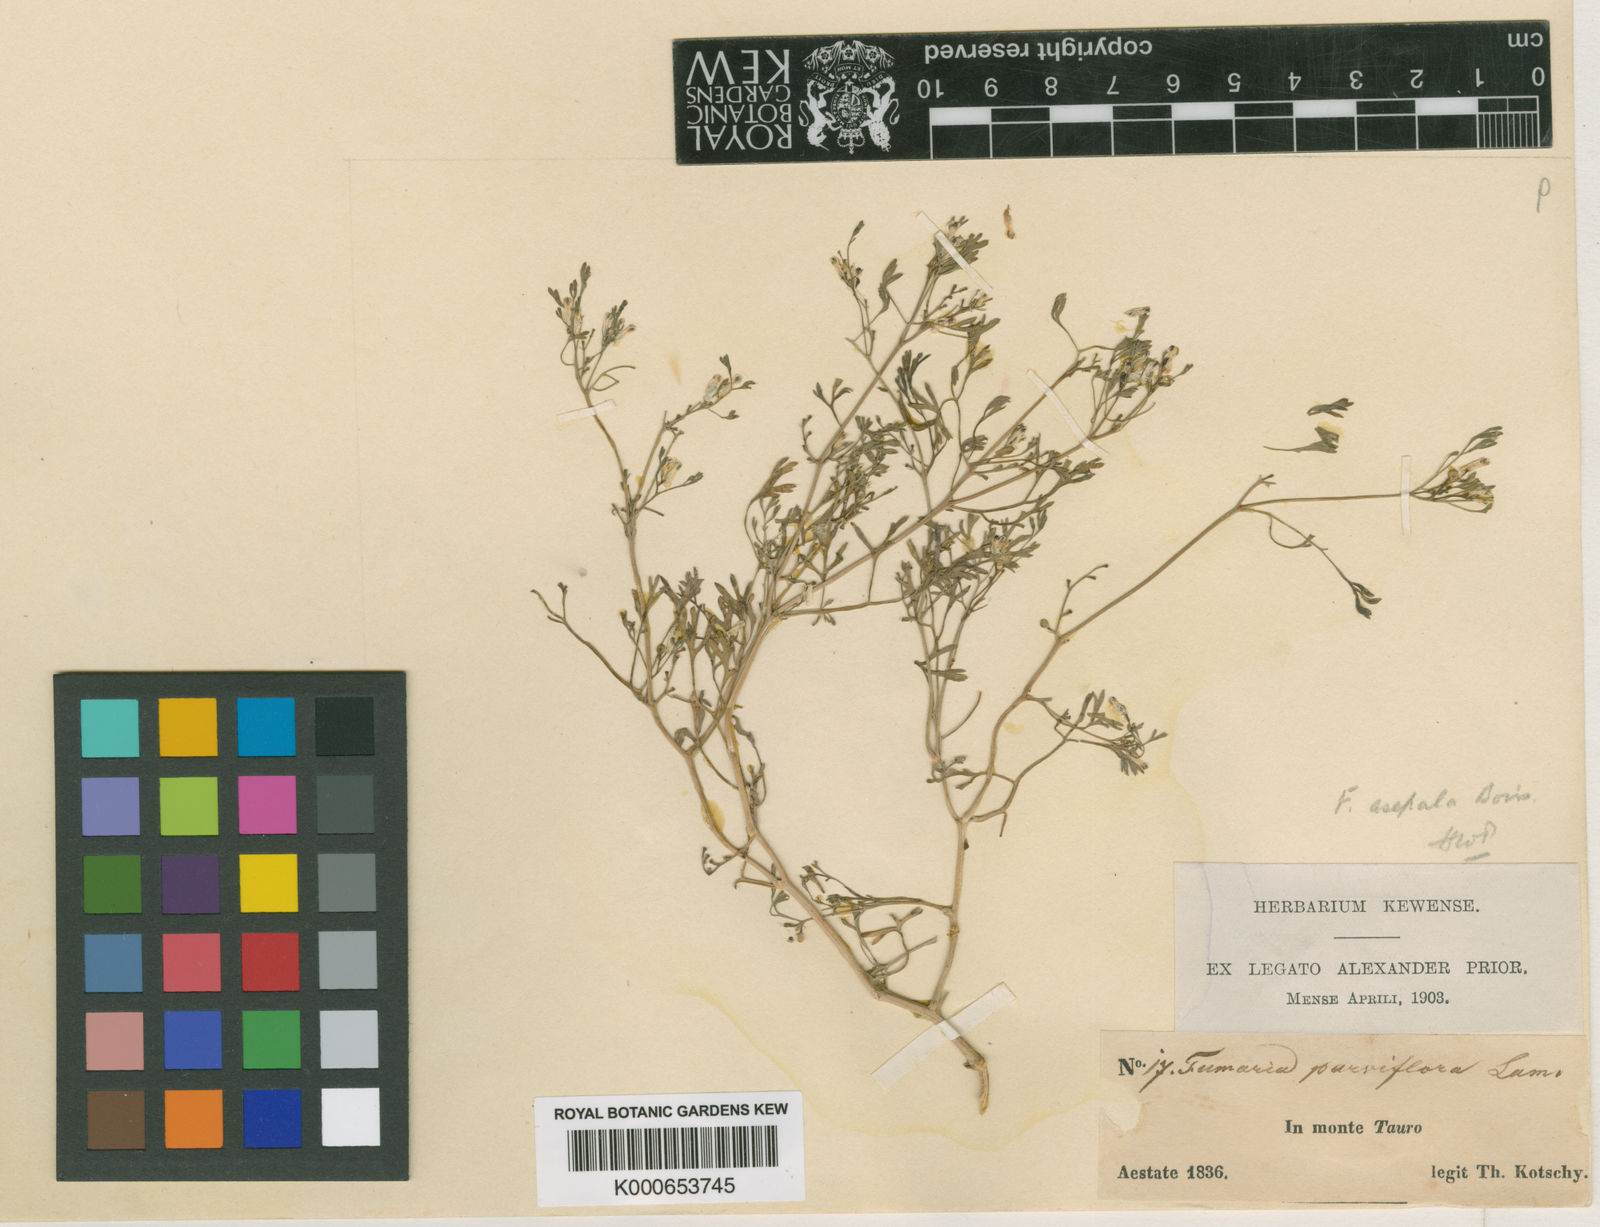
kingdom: Plantae
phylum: Tracheophyta
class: Magnoliopsida
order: Ranunculales
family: Papaveraceae
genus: Fumaria
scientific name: Fumaria asepala
